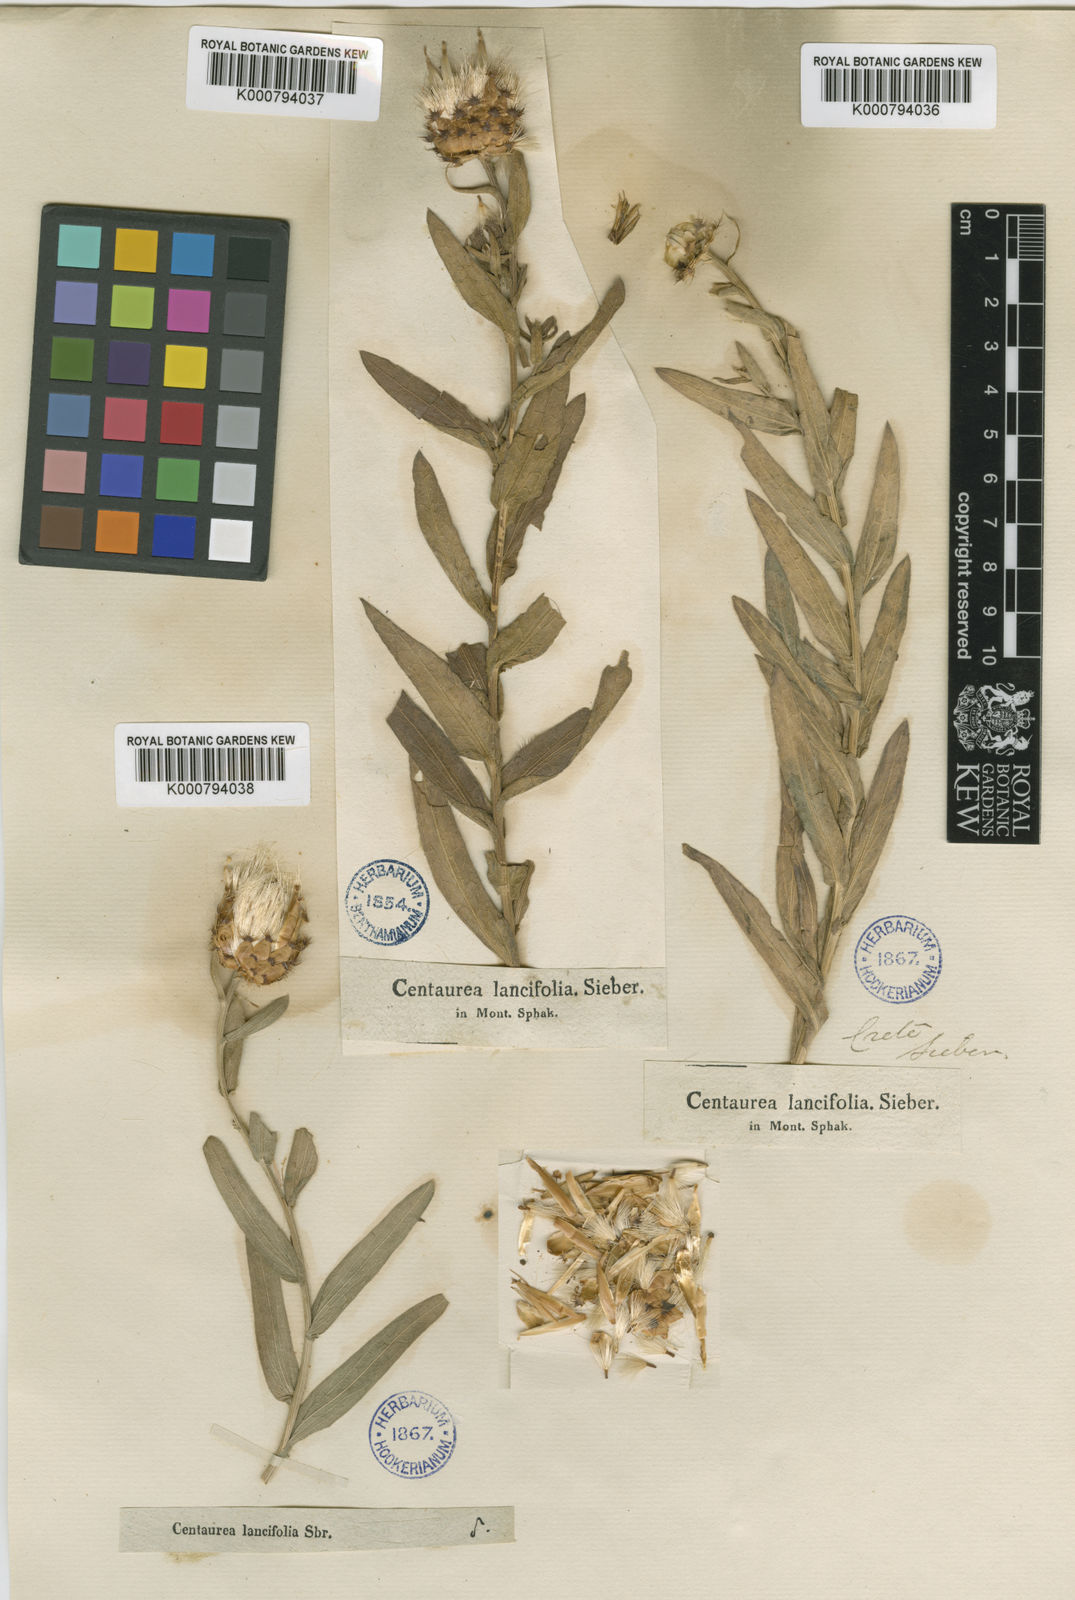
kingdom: Plantae
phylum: Tracheophyta
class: Magnoliopsida
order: Asterales
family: Asteraceae
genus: Centaurea
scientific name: Centaurea lancifolia
